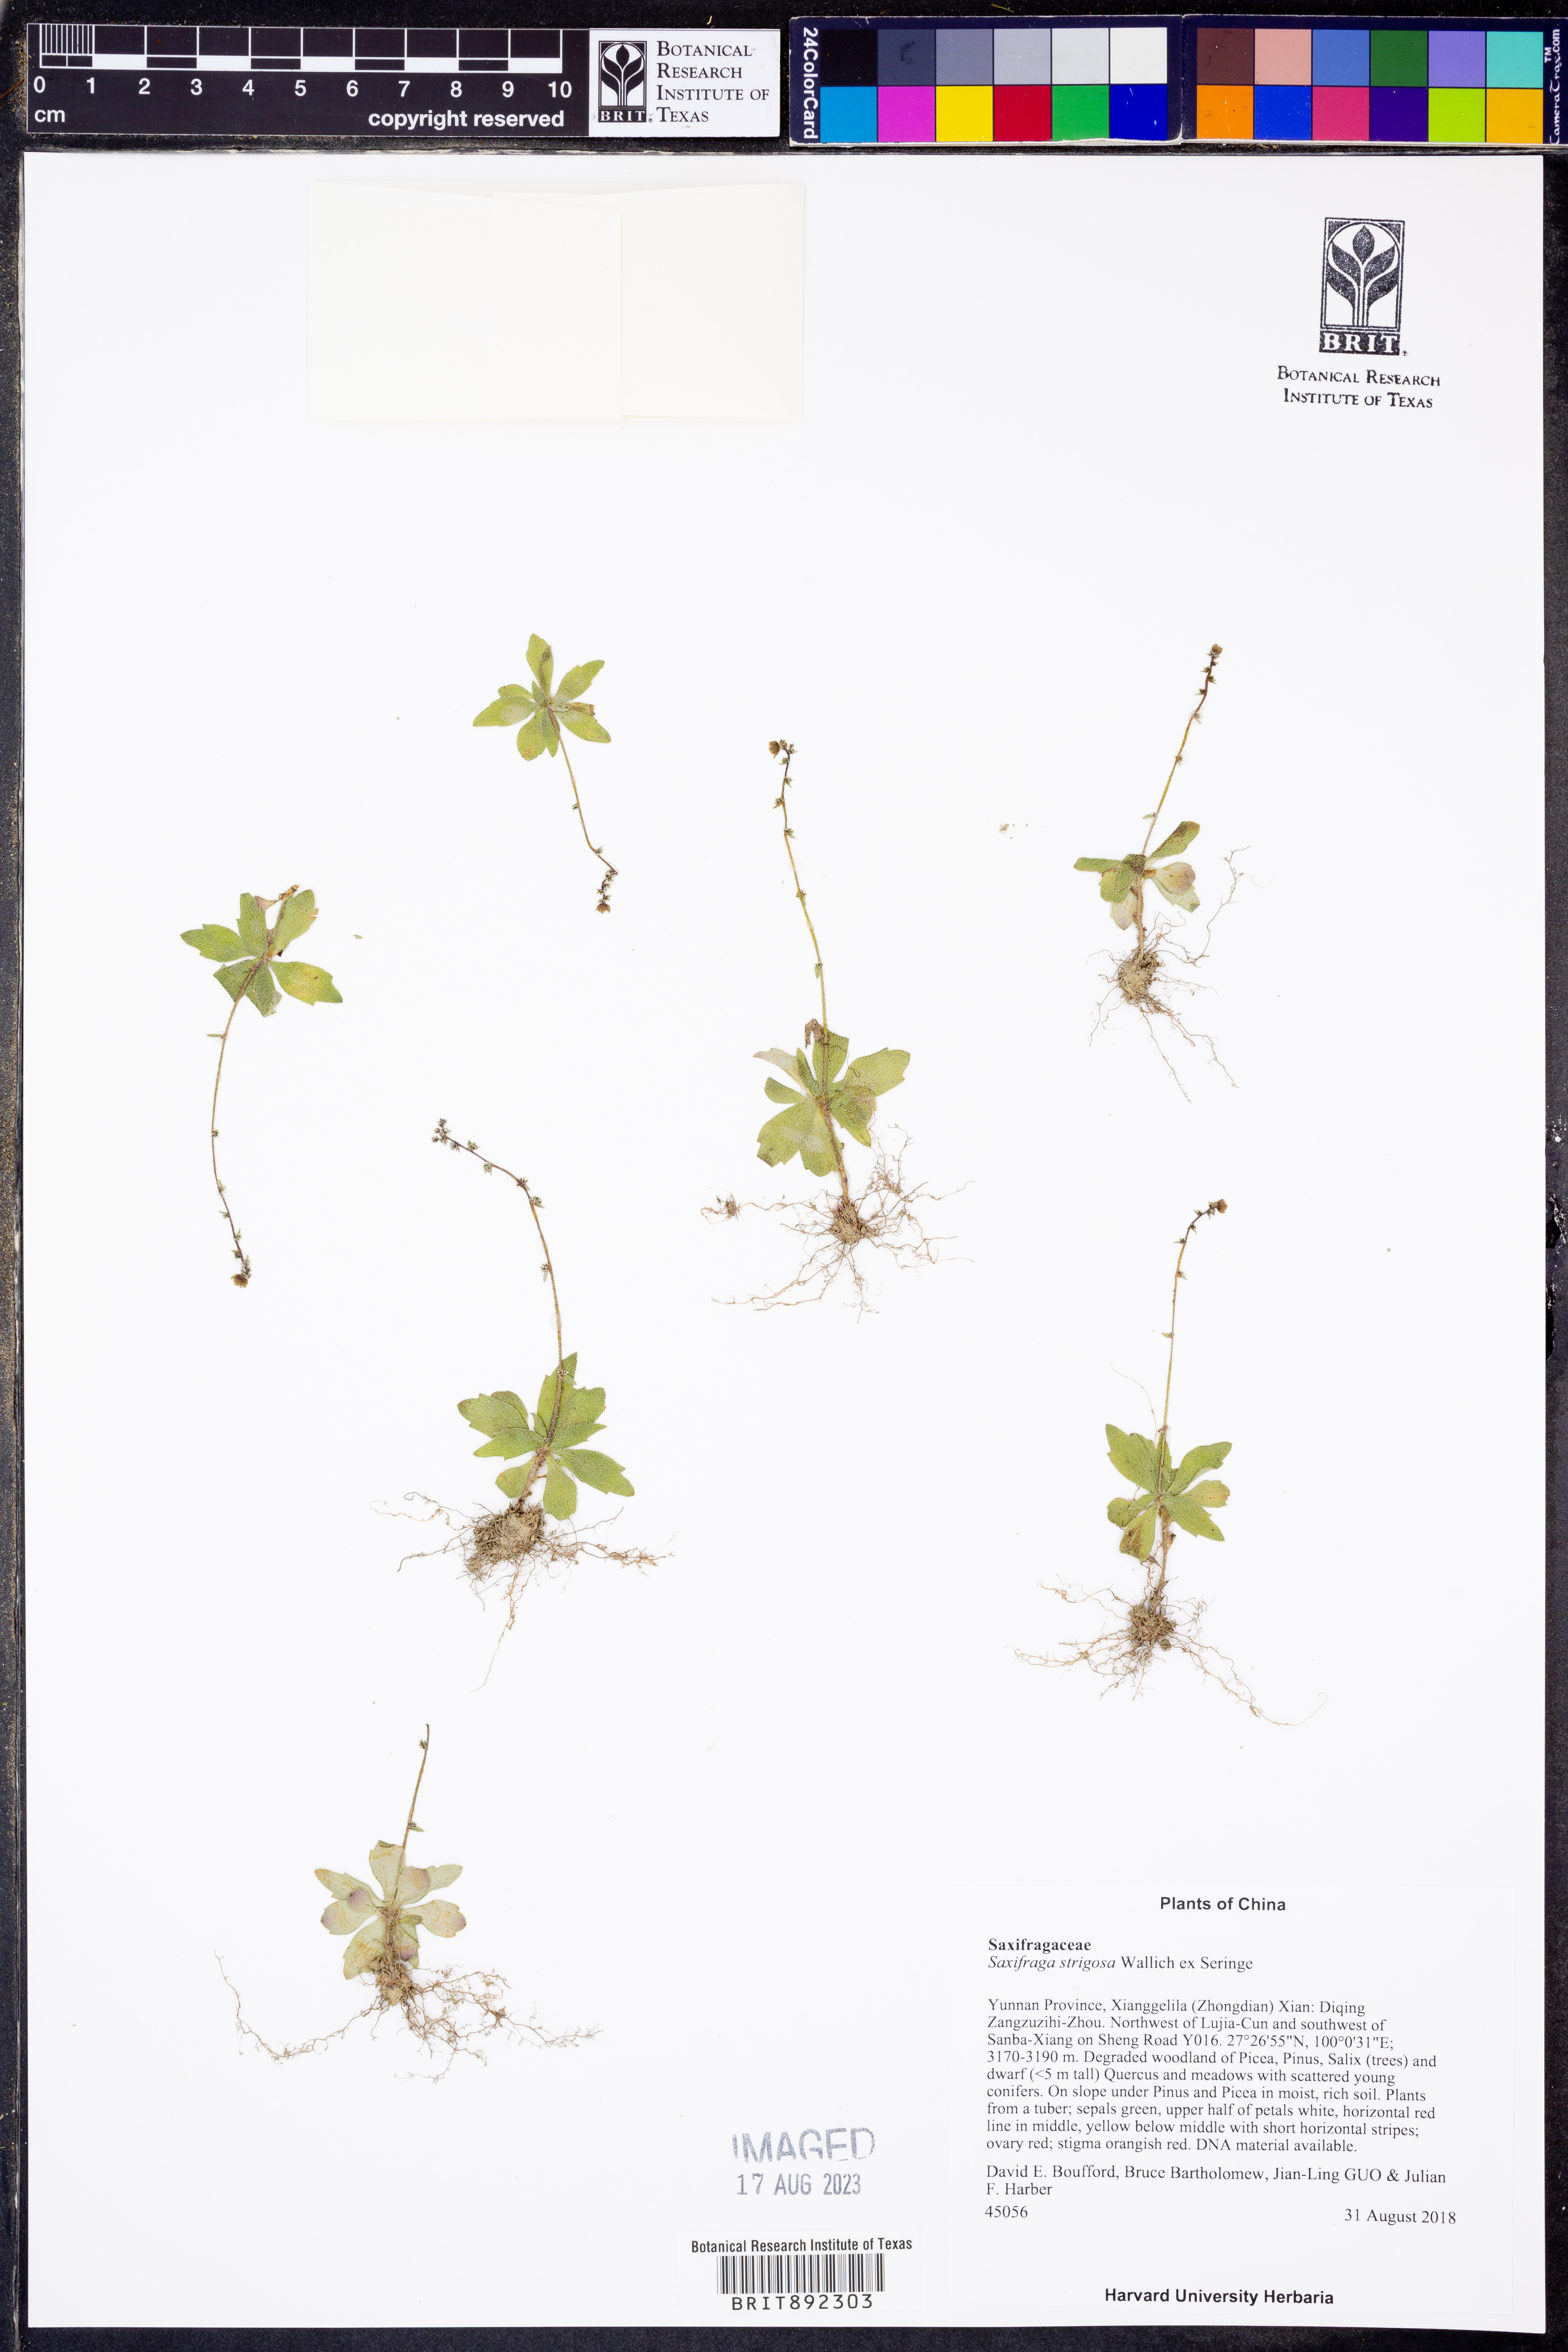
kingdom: Plantae
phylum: Tracheophyta
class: Magnoliopsida
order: Saxifragales
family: Saxifragaceae
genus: Saxifraga
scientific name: Saxifraga strigosa
